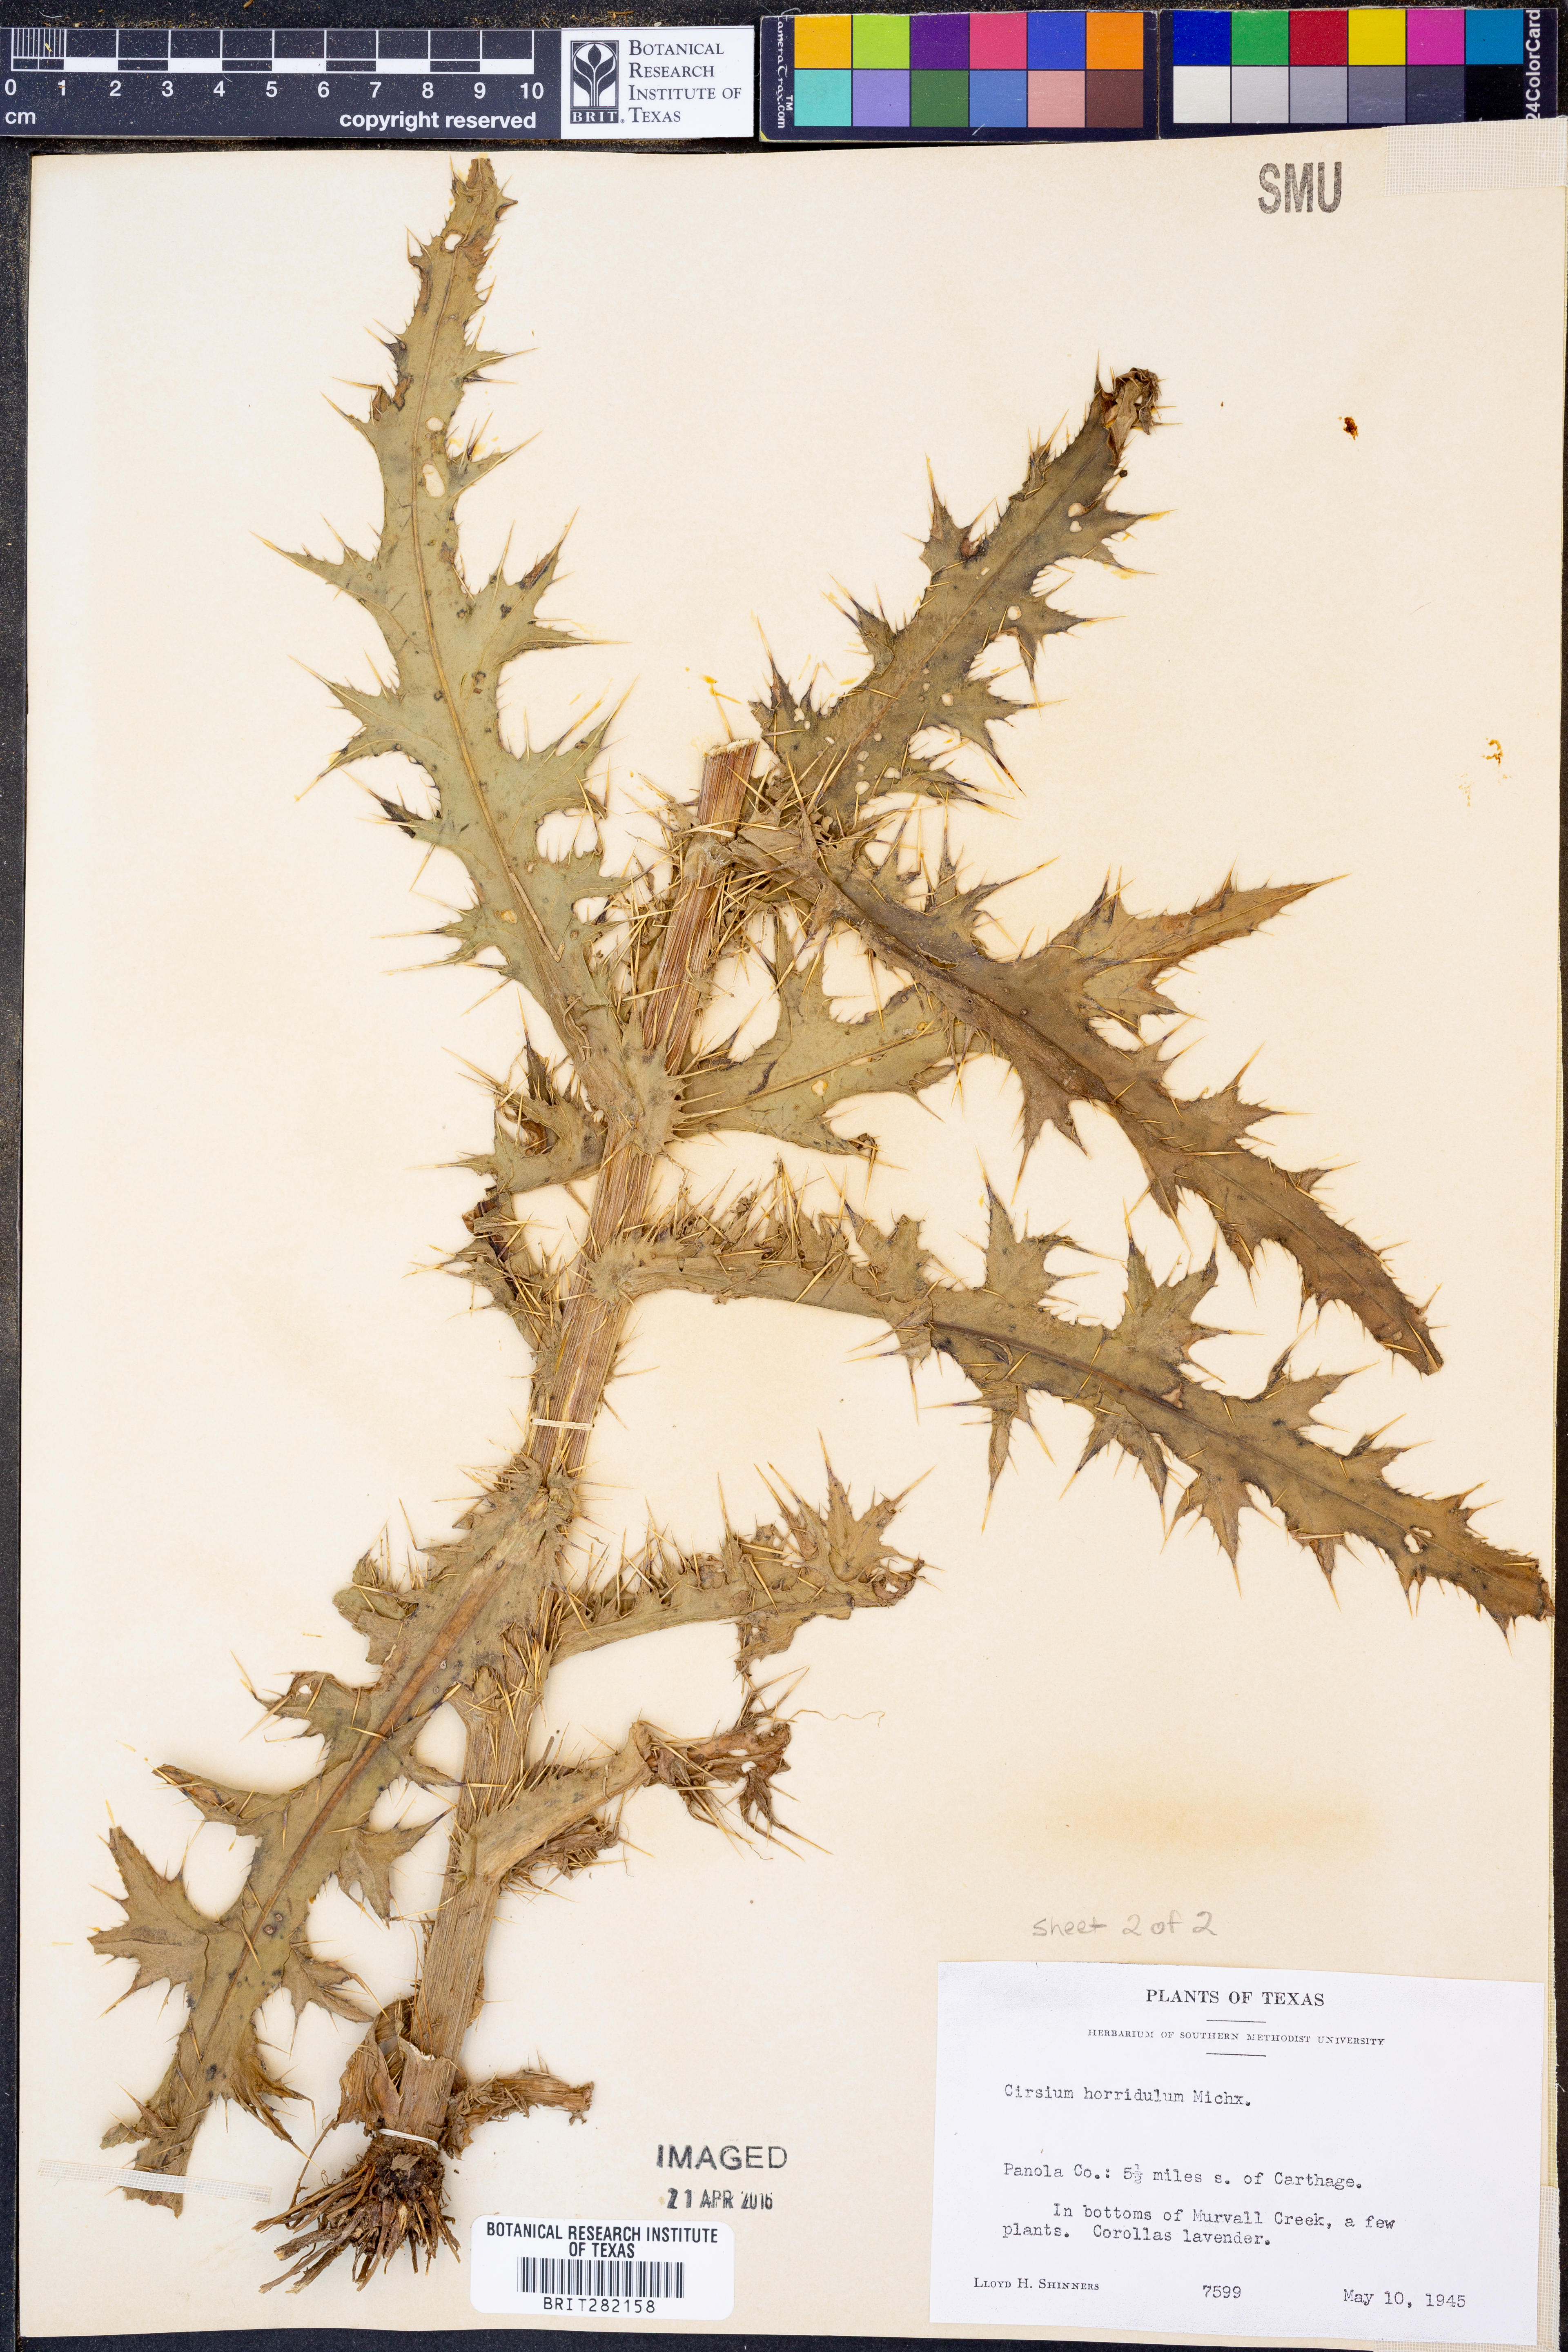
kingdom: Plantae
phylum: Tracheophyta
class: Magnoliopsida
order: Asterales
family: Asteraceae
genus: Cirsium
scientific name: Cirsium horridulum
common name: Bristly thistle
